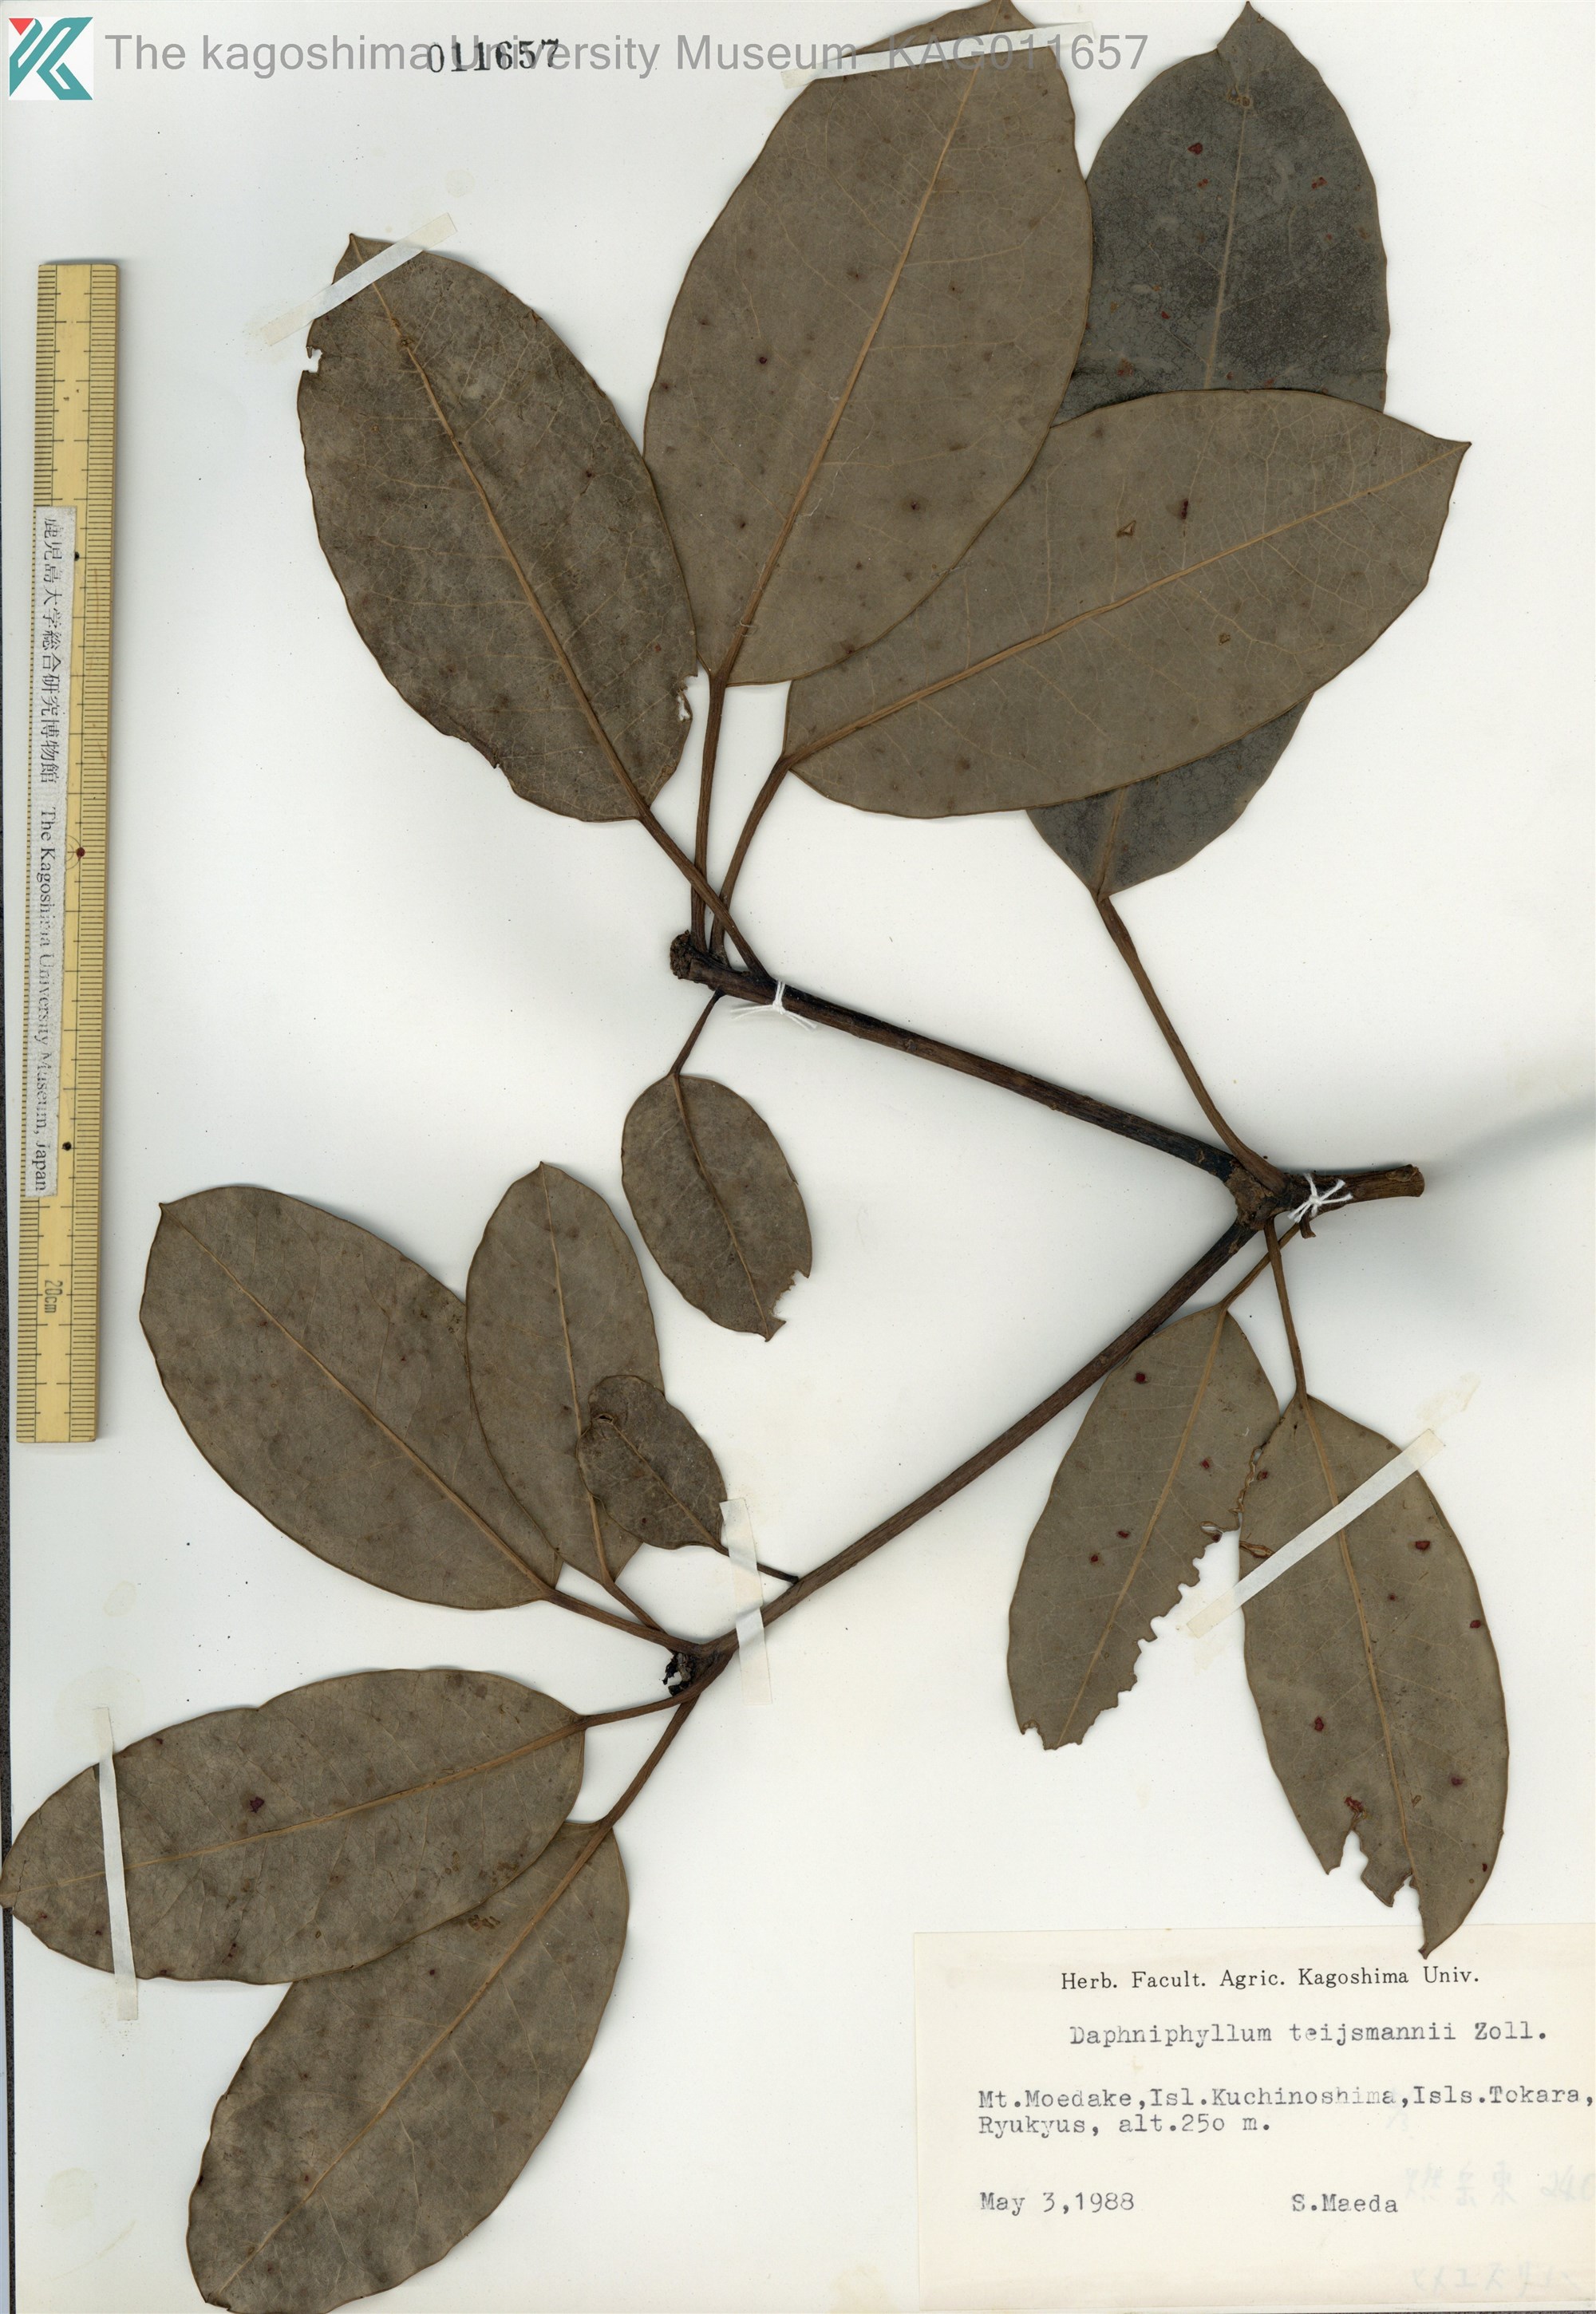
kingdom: Plantae
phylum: Tracheophyta
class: Magnoliopsida
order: Saxifragales
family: Daphniphyllaceae
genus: Daphniphyllum
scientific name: Daphniphyllum teijsmannii
